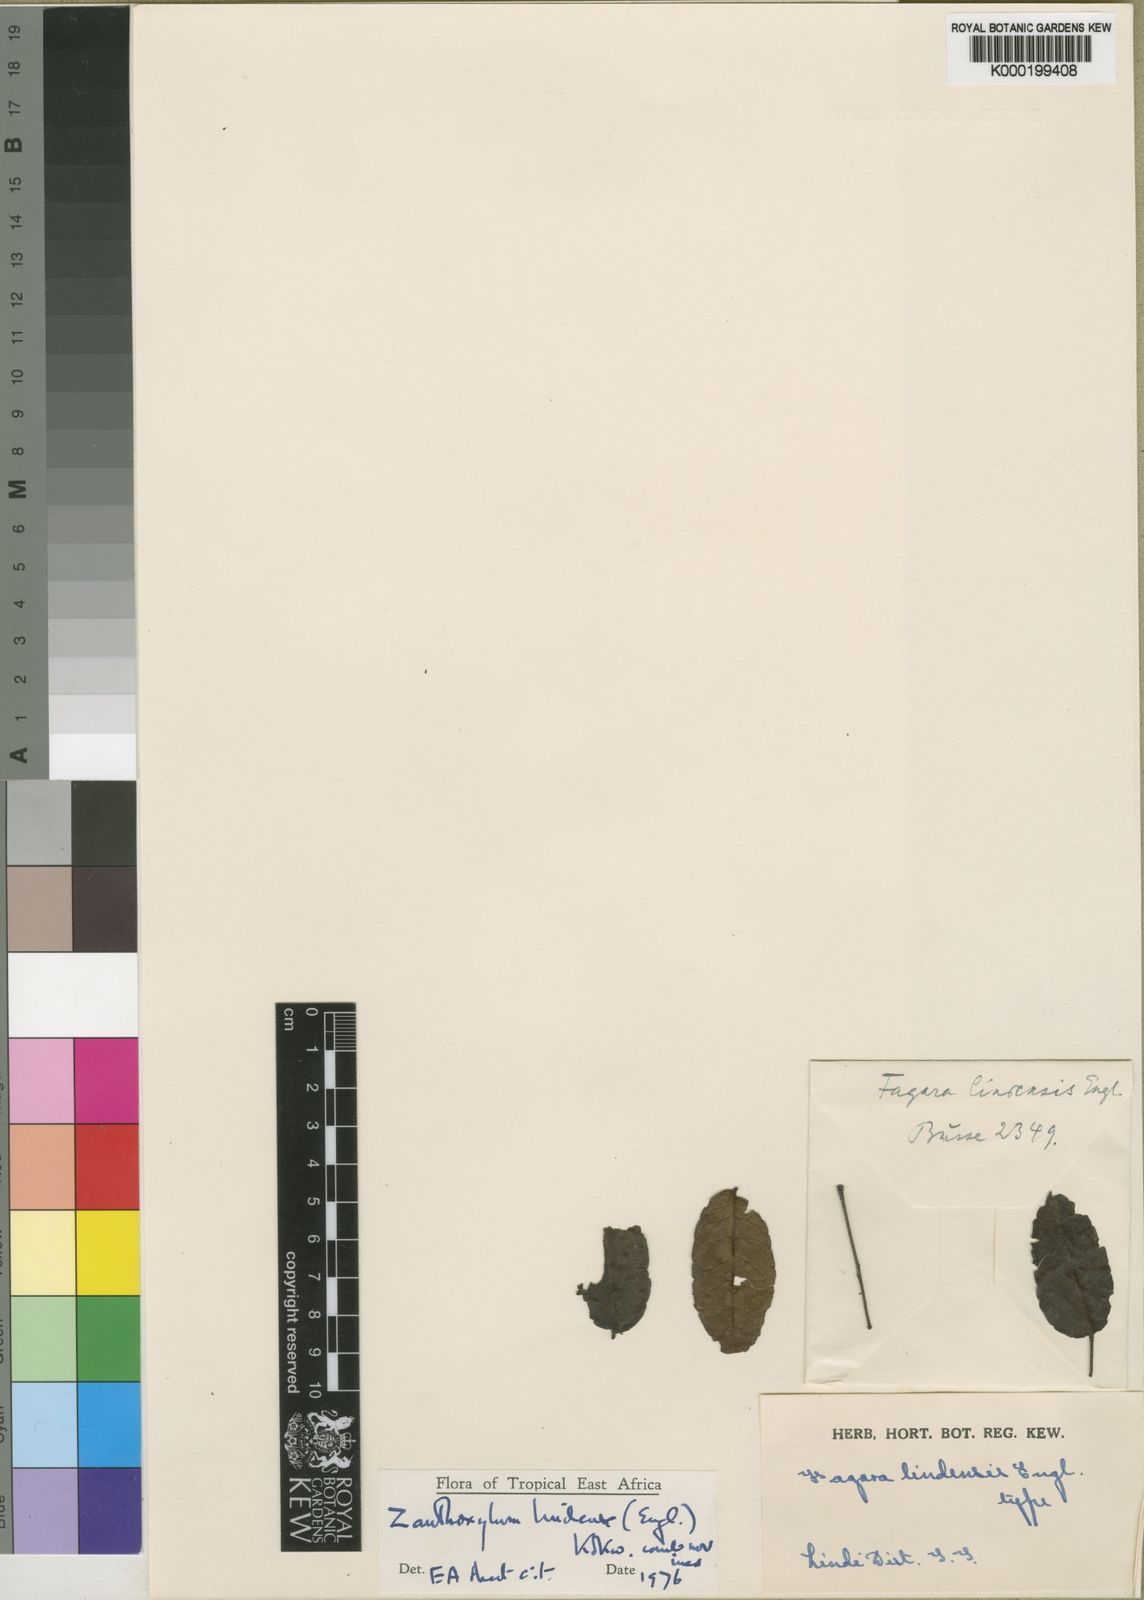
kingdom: Plantae
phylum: Tracheophyta
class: Magnoliopsida
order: Sapindales
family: Rutaceae
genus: Zanthoxylum
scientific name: Zanthoxylum lindense
